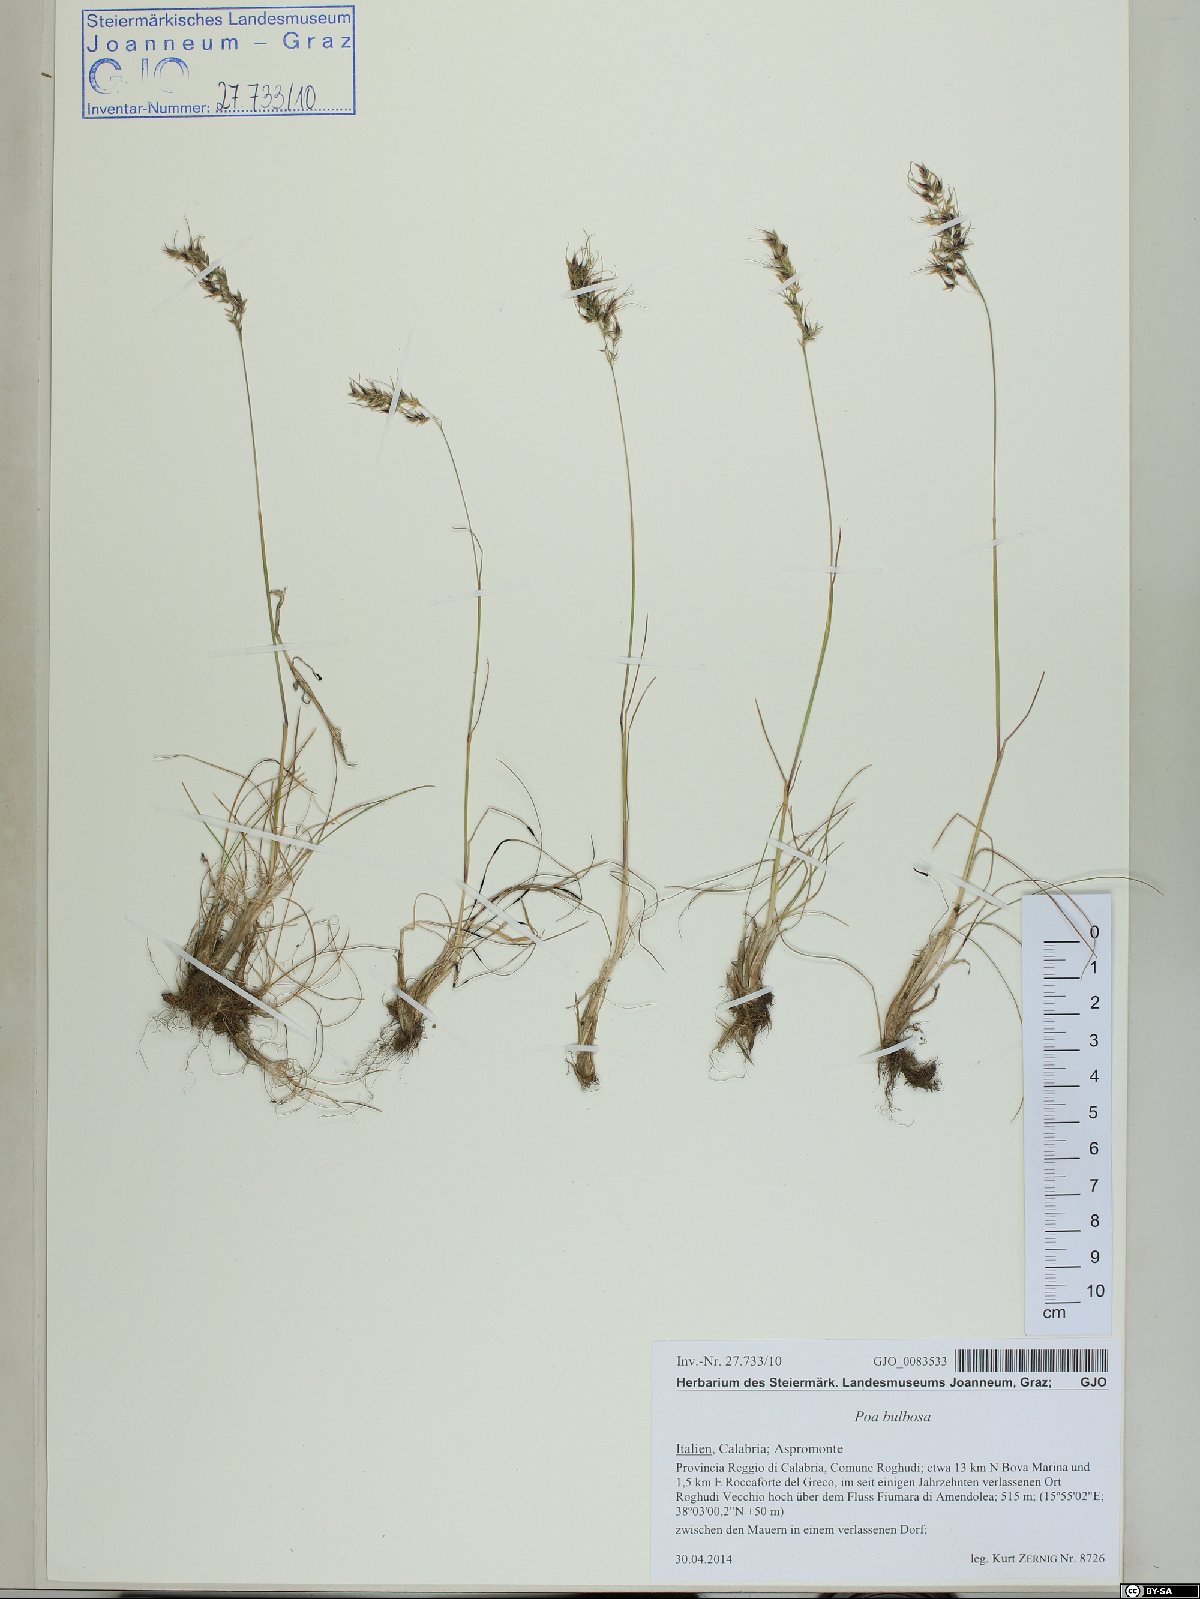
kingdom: Plantae
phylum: Tracheophyta
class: Liliopsida
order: Poales
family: Poaceae
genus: Poa
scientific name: Poa bulbosa
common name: Bulbous bluegrass
